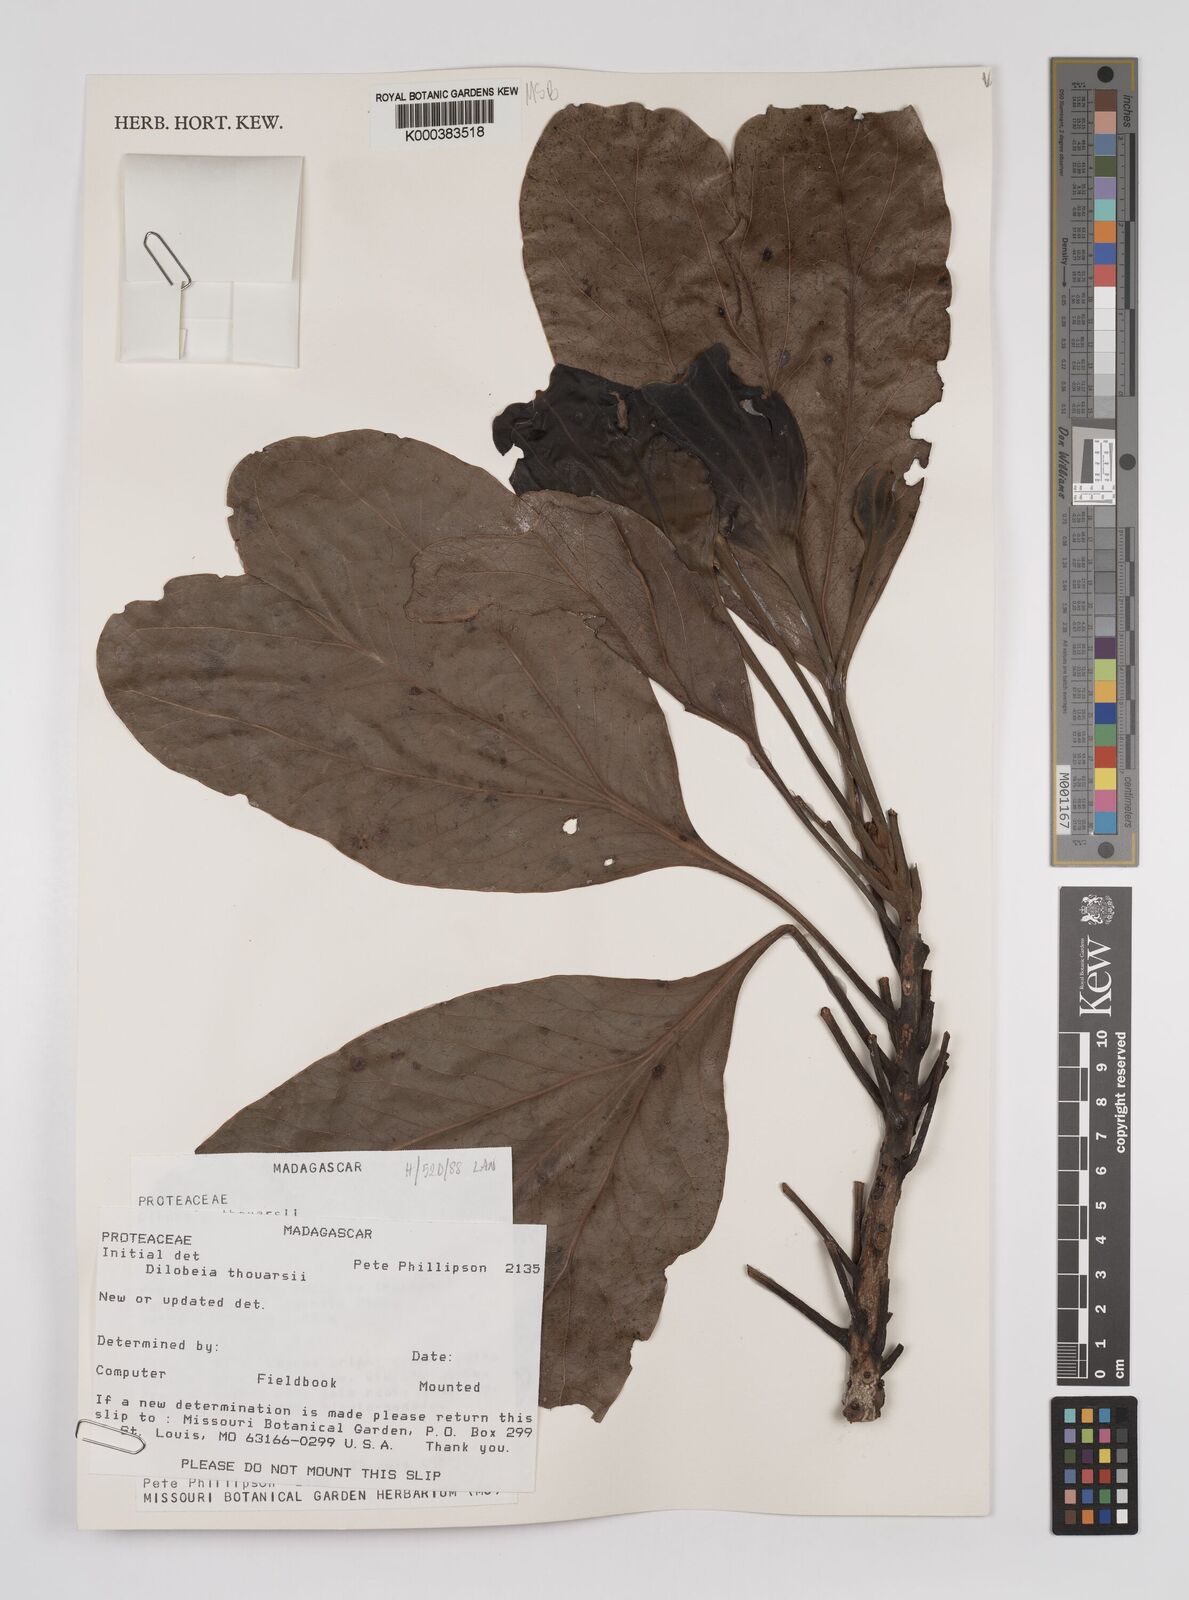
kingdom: Plantae
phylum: Tracheophyta
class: Magnoliopsida
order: Proteales
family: Proteaceae
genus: Dilobeia
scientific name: Dilobeia thouarsii
